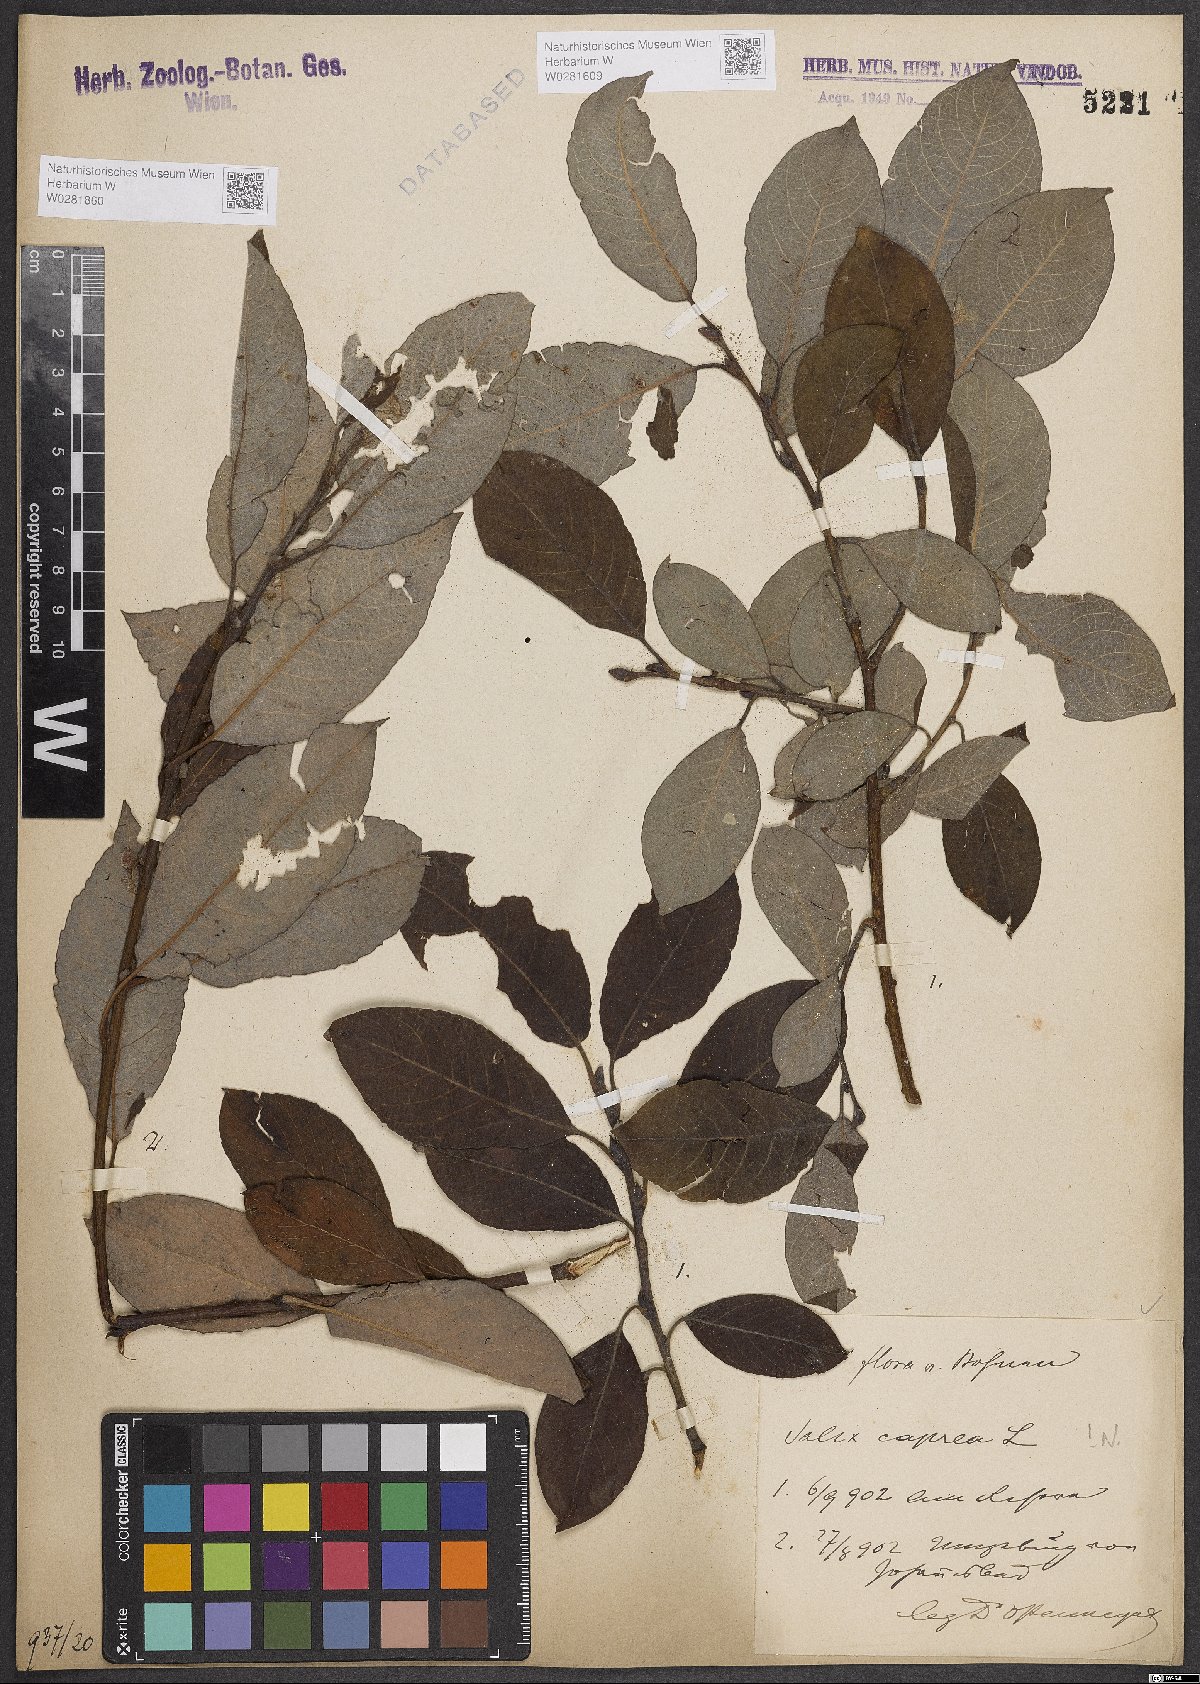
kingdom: Plantae
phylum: Tracheophyta
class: Magnoliopsida
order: Malpighiales
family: Salicaceae
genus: Salix
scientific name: Salix caprea
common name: Goat willow
